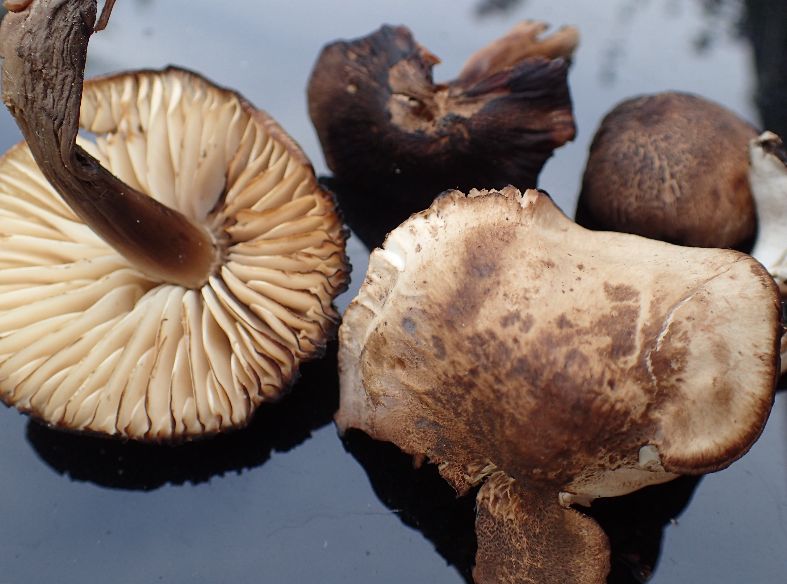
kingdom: Fungi
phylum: Basidiomycota
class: Agaricomycetes
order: Agaricales
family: Hygrophoraceae
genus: Hygrocybe
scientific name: Hygrocybe ingrata
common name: Jensens vokshat
